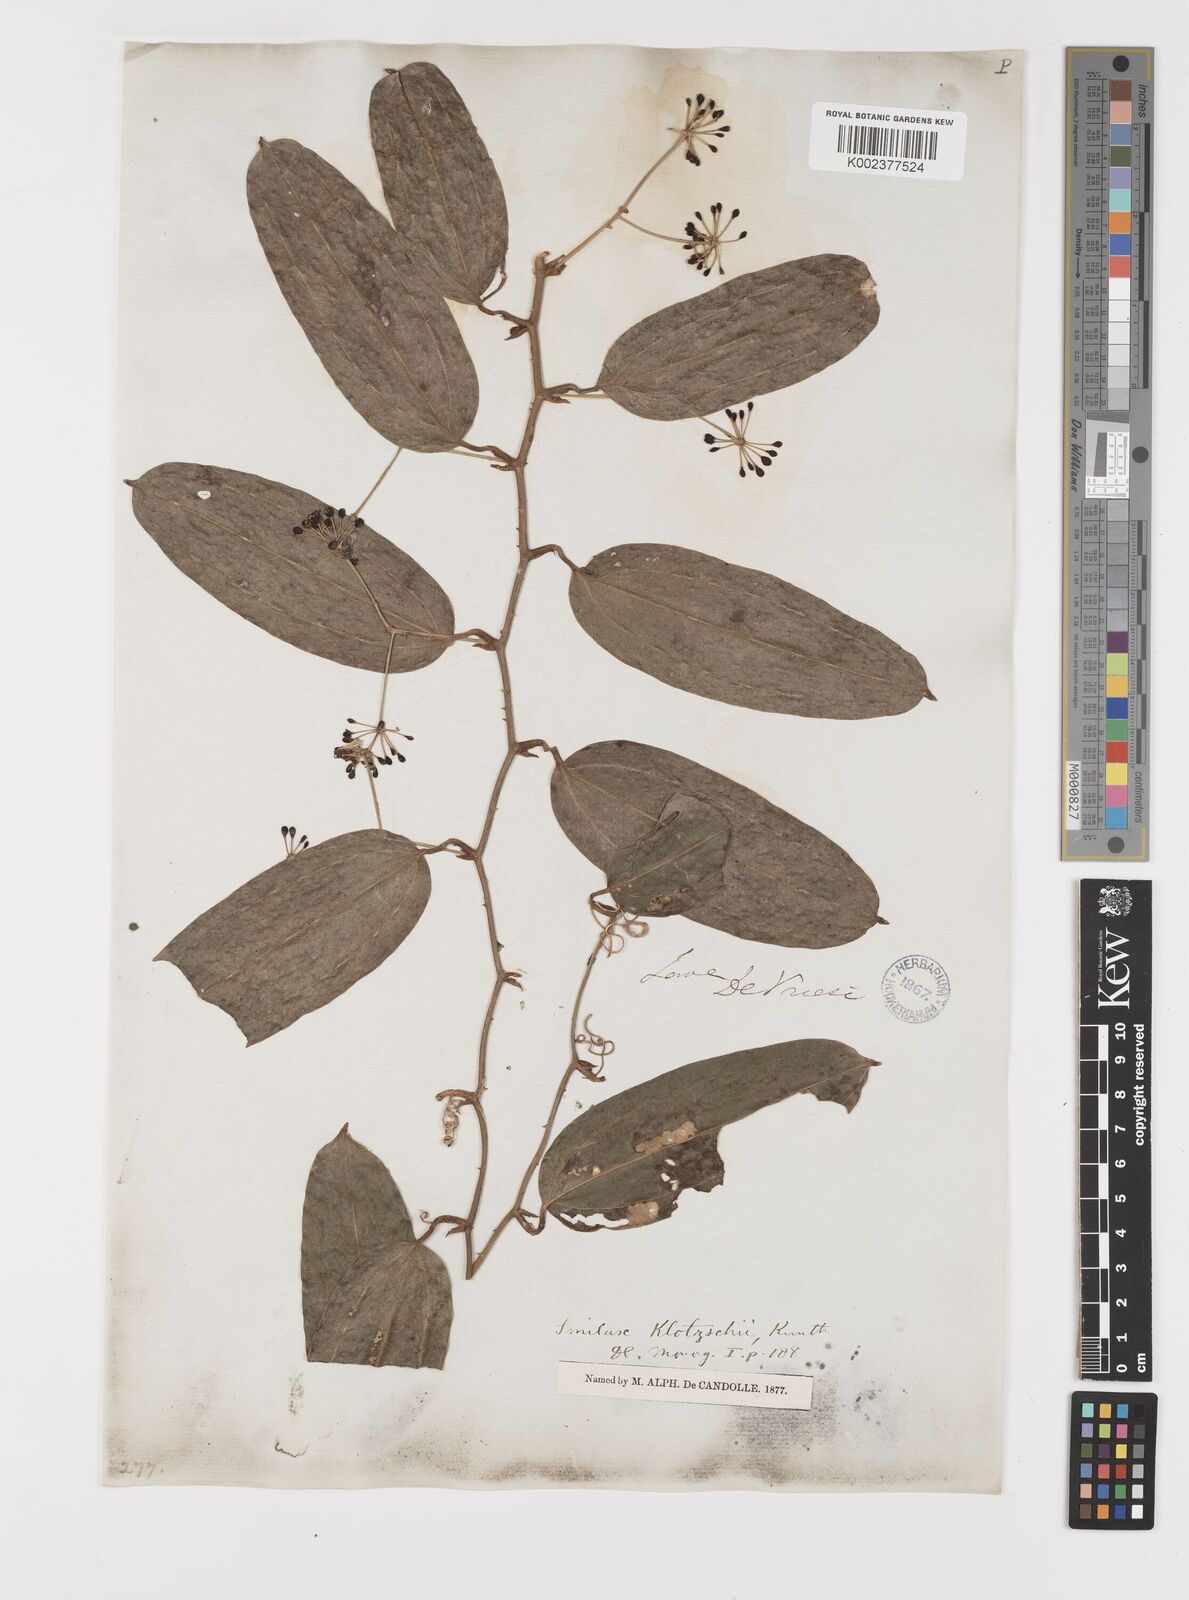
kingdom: Plantae
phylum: Tracheophyta
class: Liliopsida
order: Liliales
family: Smilacaceae
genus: Smilax
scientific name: Smilax klotzschii
